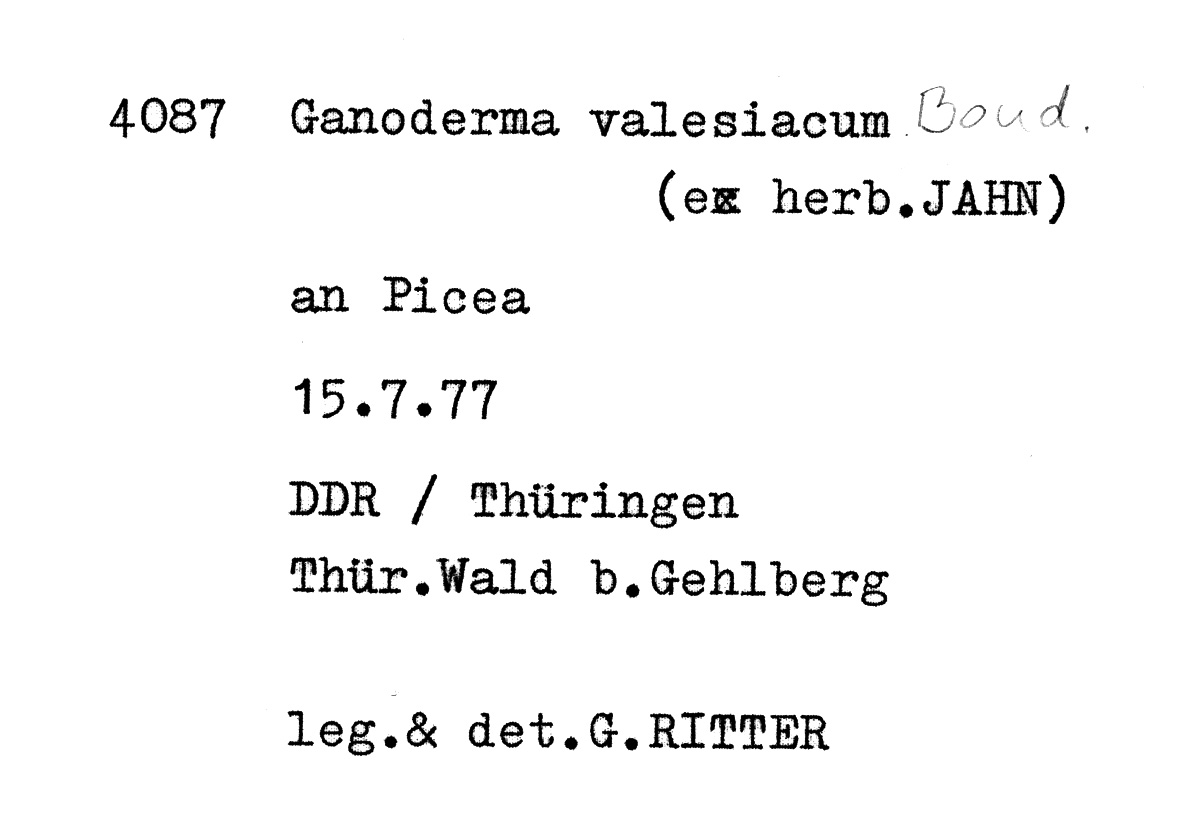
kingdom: Plantae
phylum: Tracheophyta
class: Pinopsida
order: Pinales
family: Pinaceae
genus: Picea
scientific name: Picea
